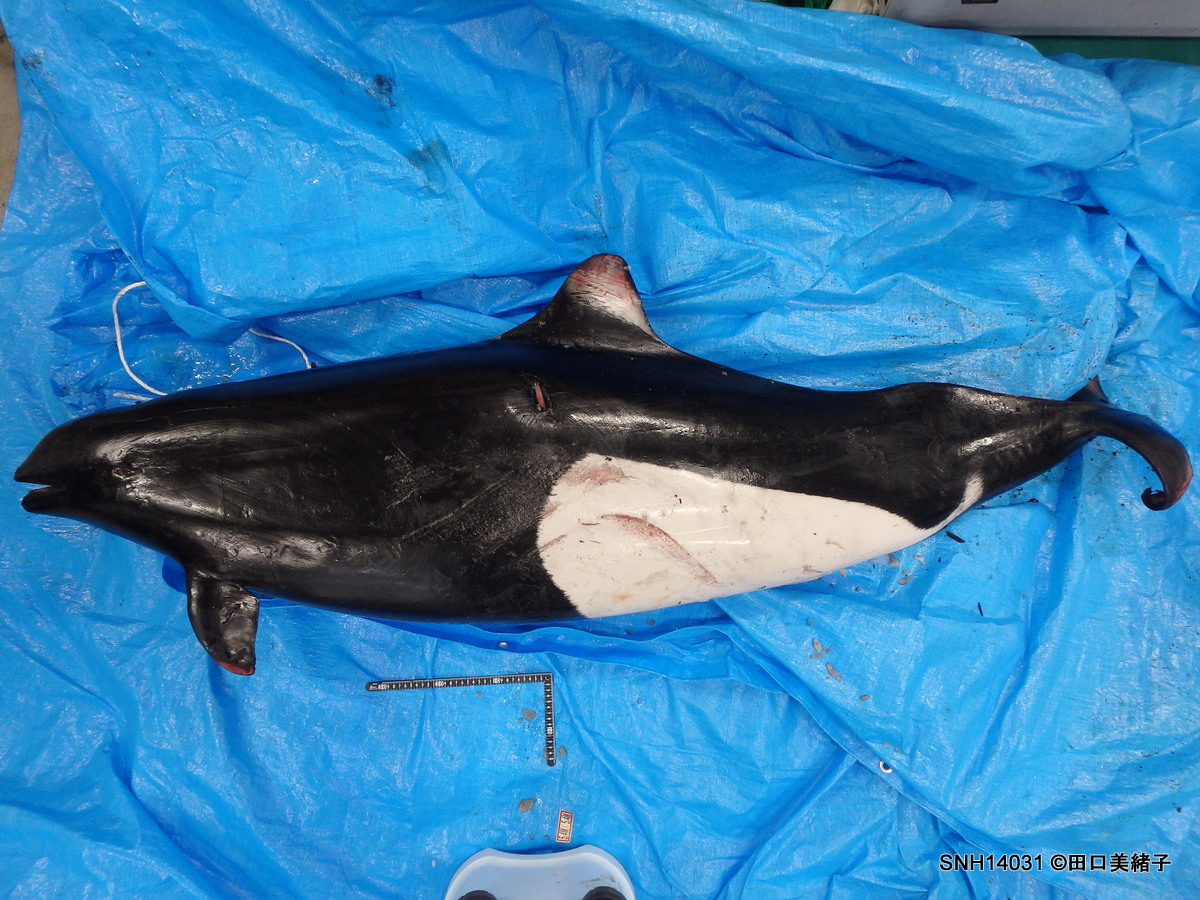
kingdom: Animalia
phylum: Chordata
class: Mammalia
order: Cetacea
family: Phocoenidae
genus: Phocoenoides
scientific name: Phocoenoides dalli
